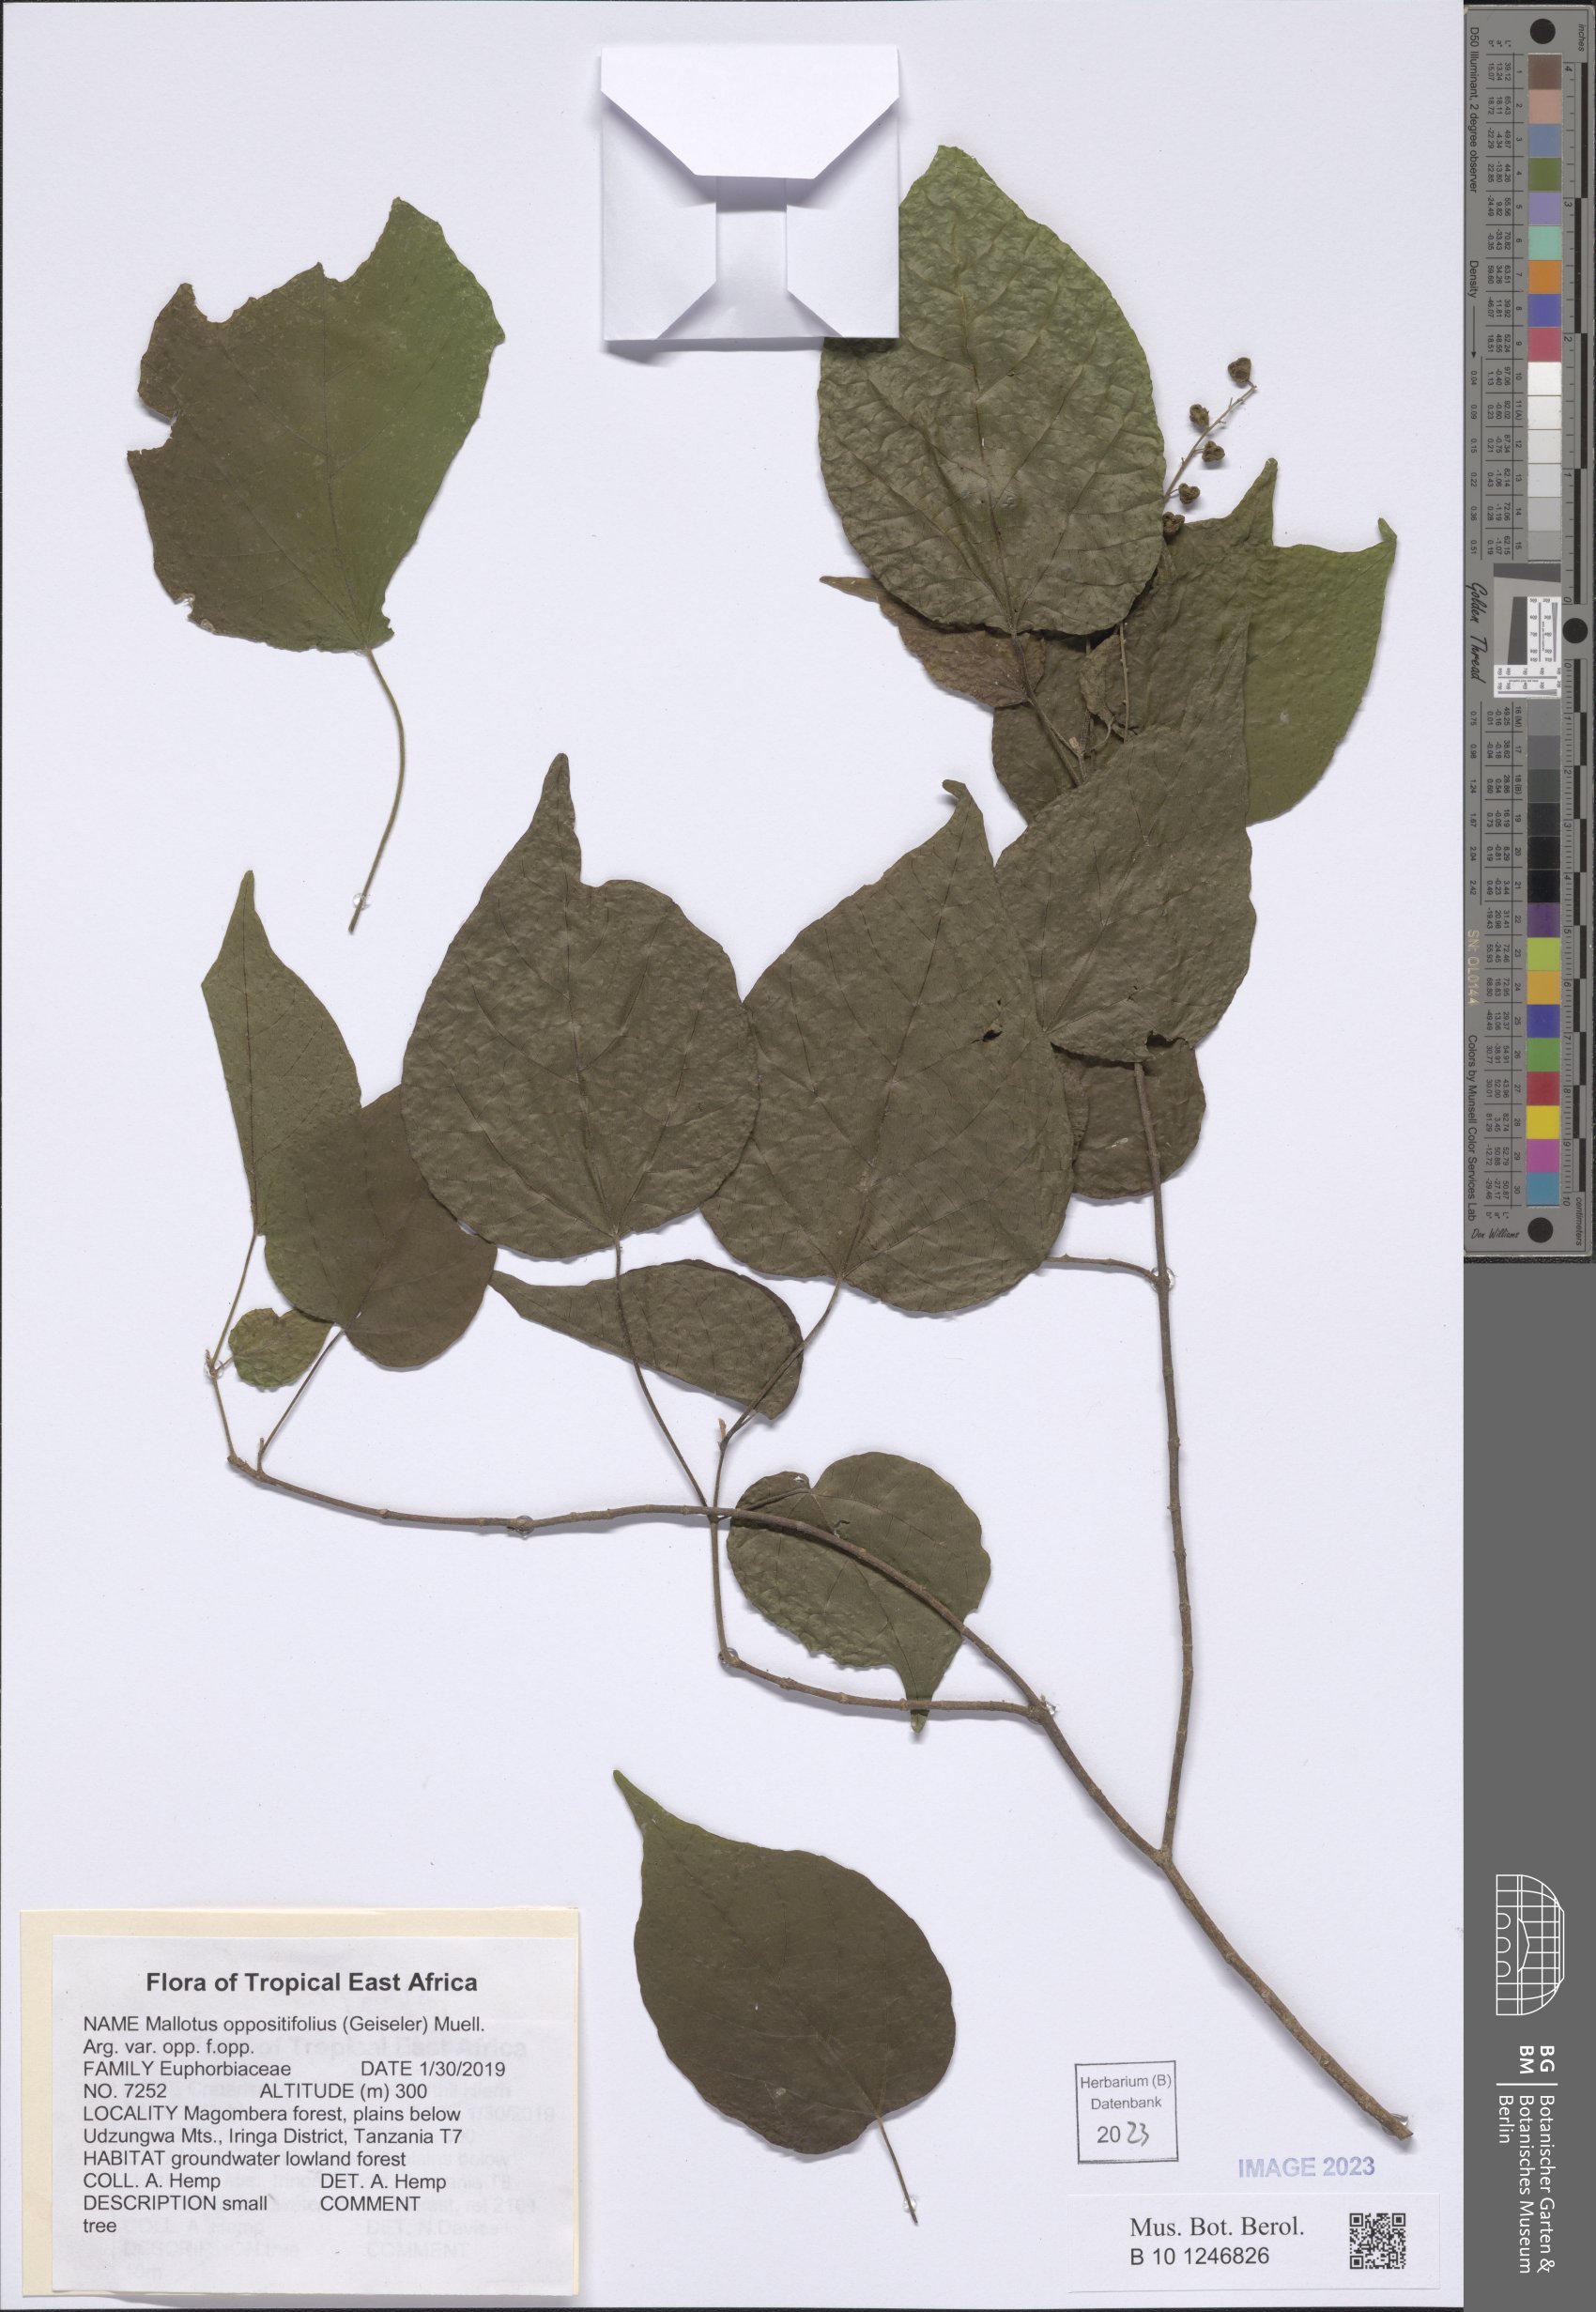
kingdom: Plantae
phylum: Tracheophyta
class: Magnoliopsida
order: Malpighiales
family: Euphorbiaceae
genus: Mallotus
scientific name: Mallotus oppositifolius
